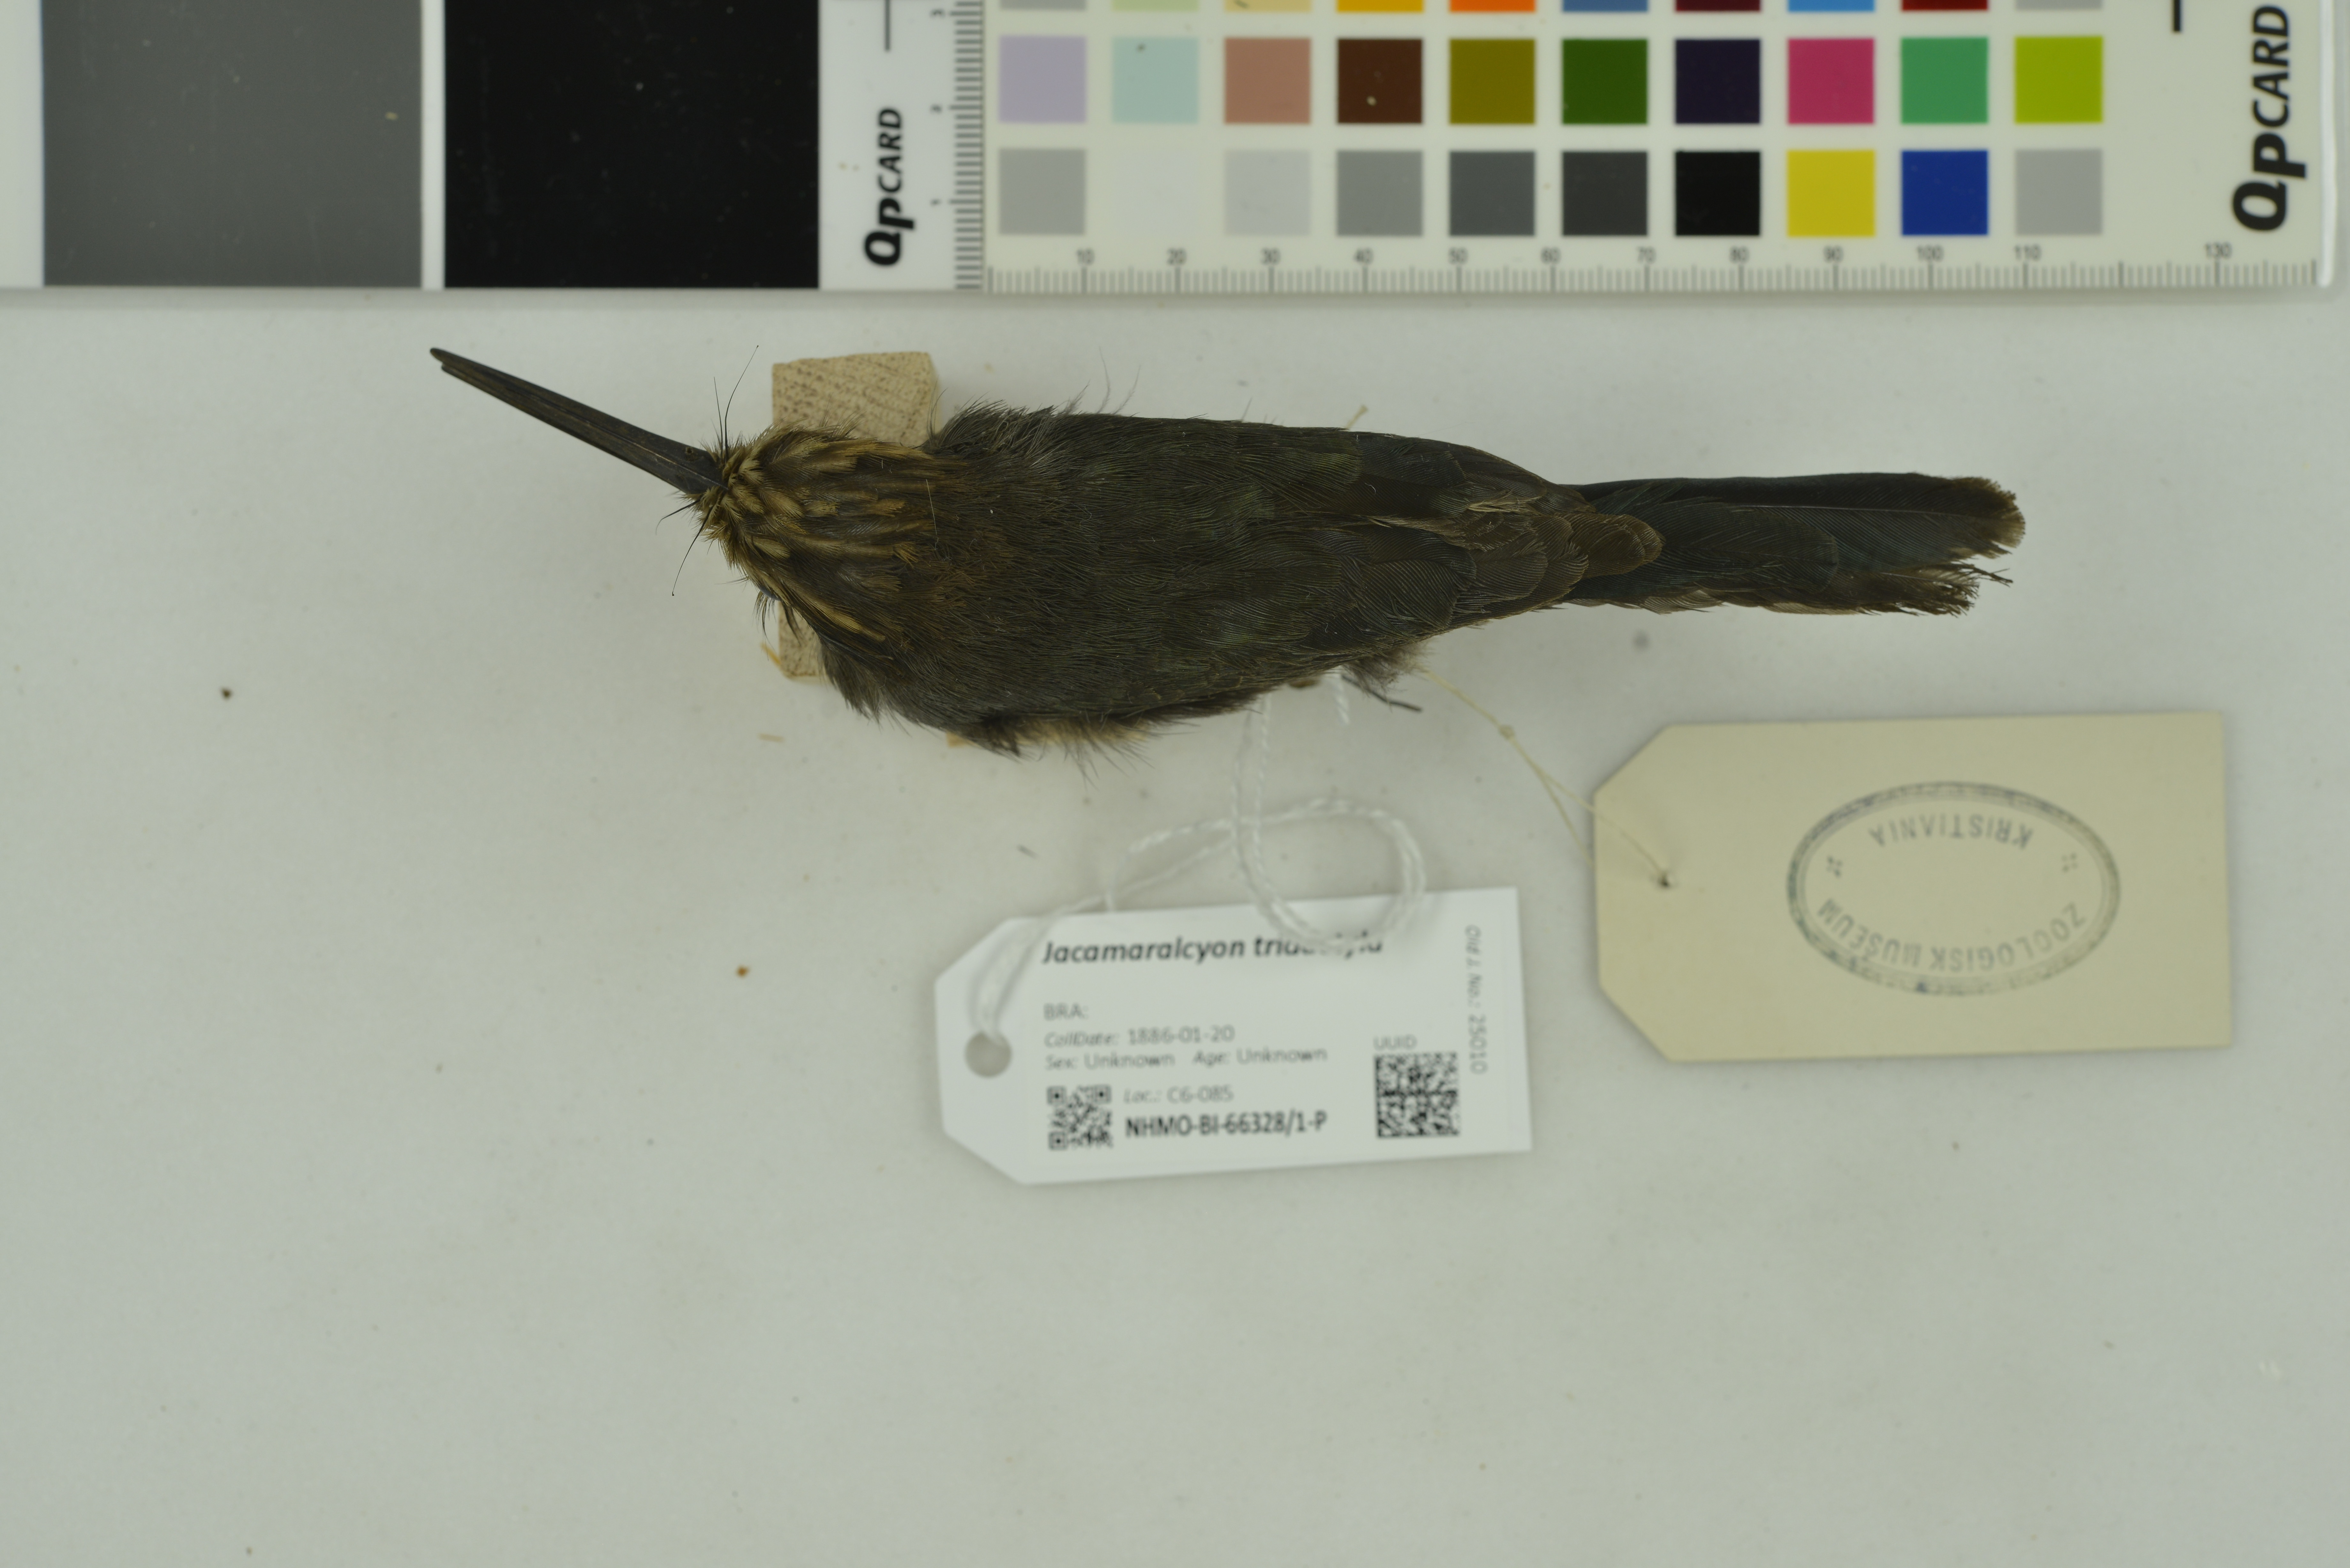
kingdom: Animalia
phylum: Chordata
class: Aves
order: Piciformes
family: Galbulidae
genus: Jacamaralcyon
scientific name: Jacamaralcyon tridactyla
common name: Three-toed jacamar
